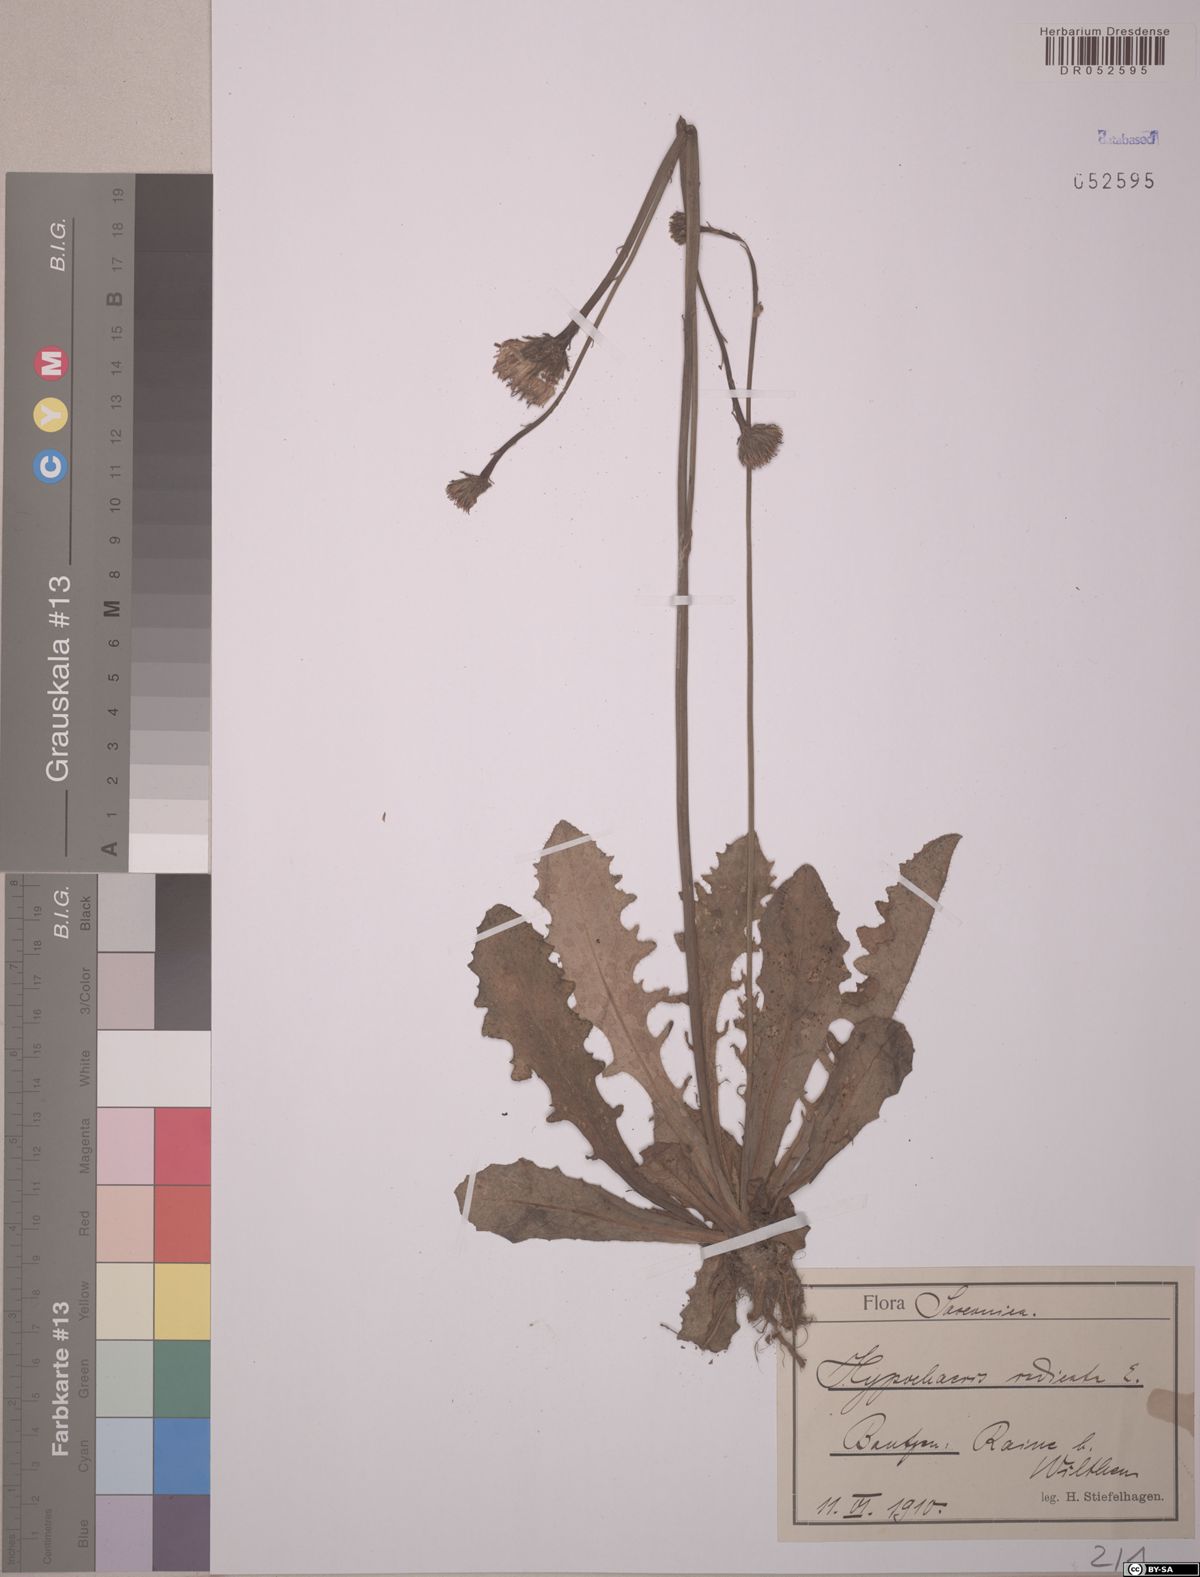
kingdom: Plantae
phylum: Tracheophyta
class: Magnoliopsida
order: Asterales
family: Asteraceae
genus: Hypochaeris
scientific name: Hypochaeris radicata
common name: Flatweed
